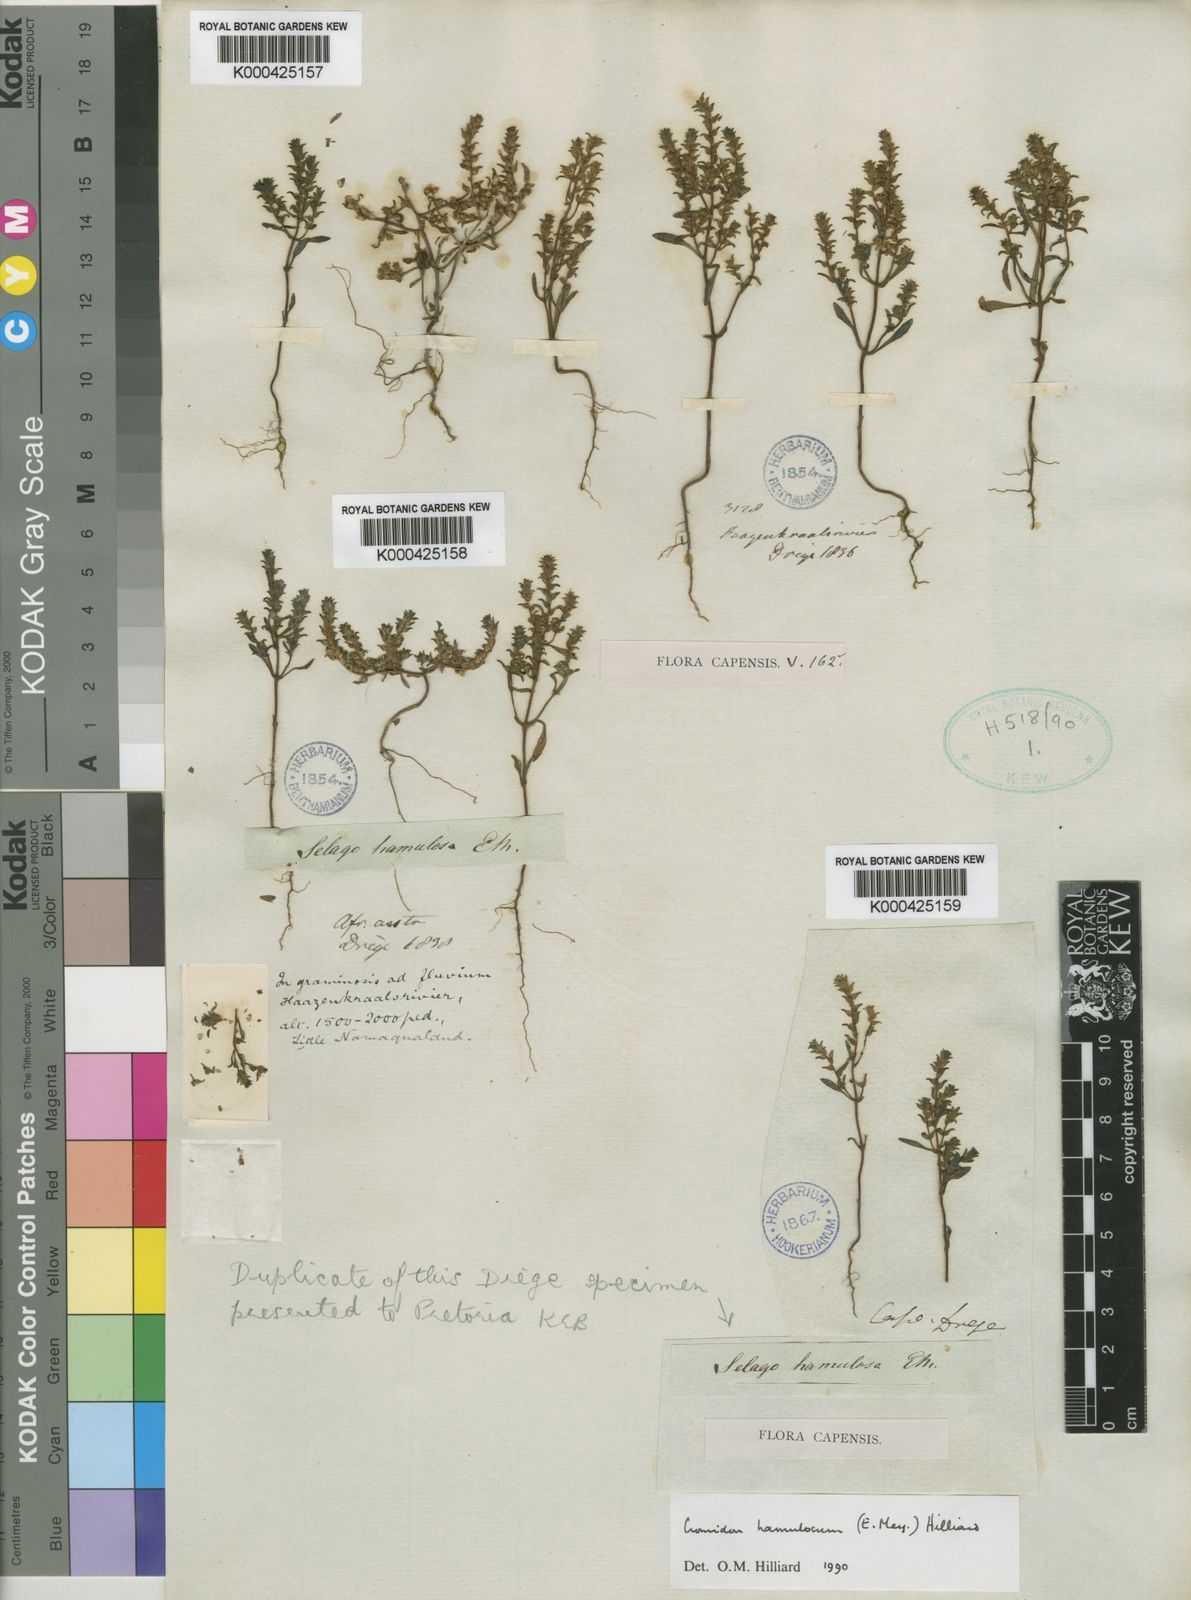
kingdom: Plantae
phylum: Tracheophyta
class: Magnoliopsida
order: Lamiales
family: Scrophulariaceae
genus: Cromidon
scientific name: Cromidon hamulosum
